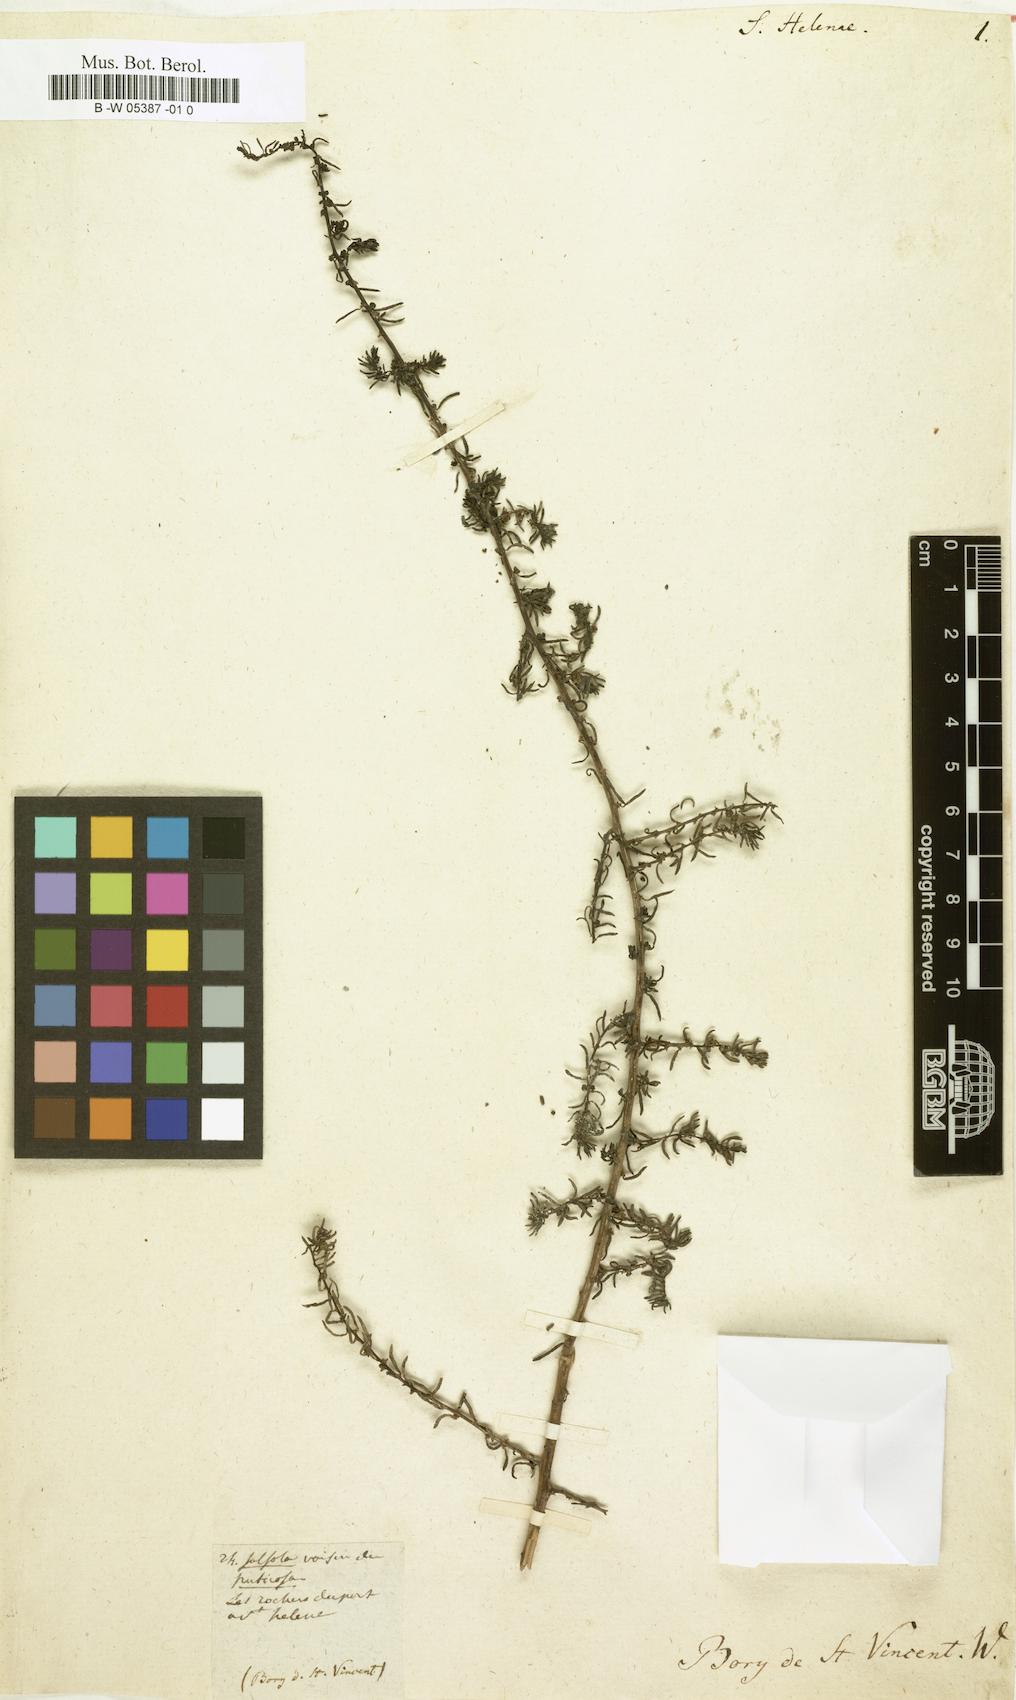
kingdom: Plantae
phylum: Tracheophyta
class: Magnoliopsida
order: Caryophyllales
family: Amaranthaceae
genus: Suaeda
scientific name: Suaeda vermiculata
